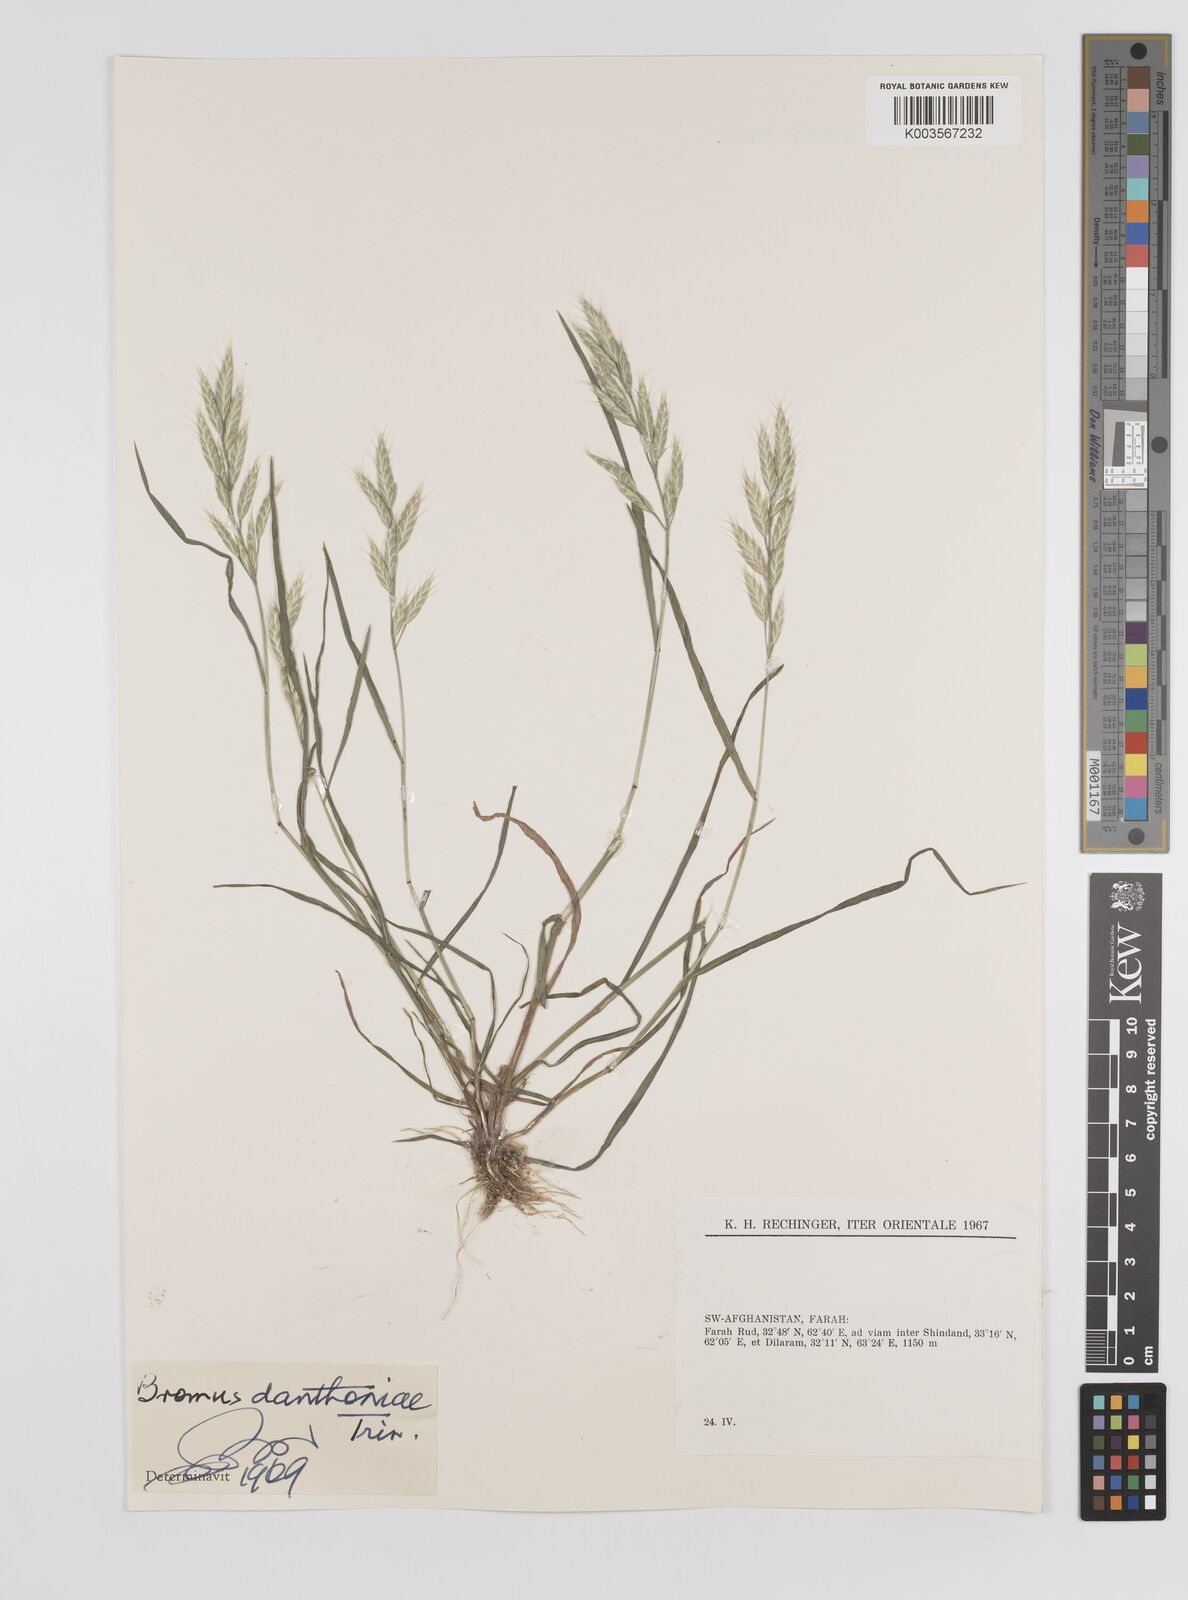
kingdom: Plantae
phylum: Tracheophyta
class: Liliopsida
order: Poales
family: Poaceae
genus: Bromus
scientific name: Bromus danthoniae
